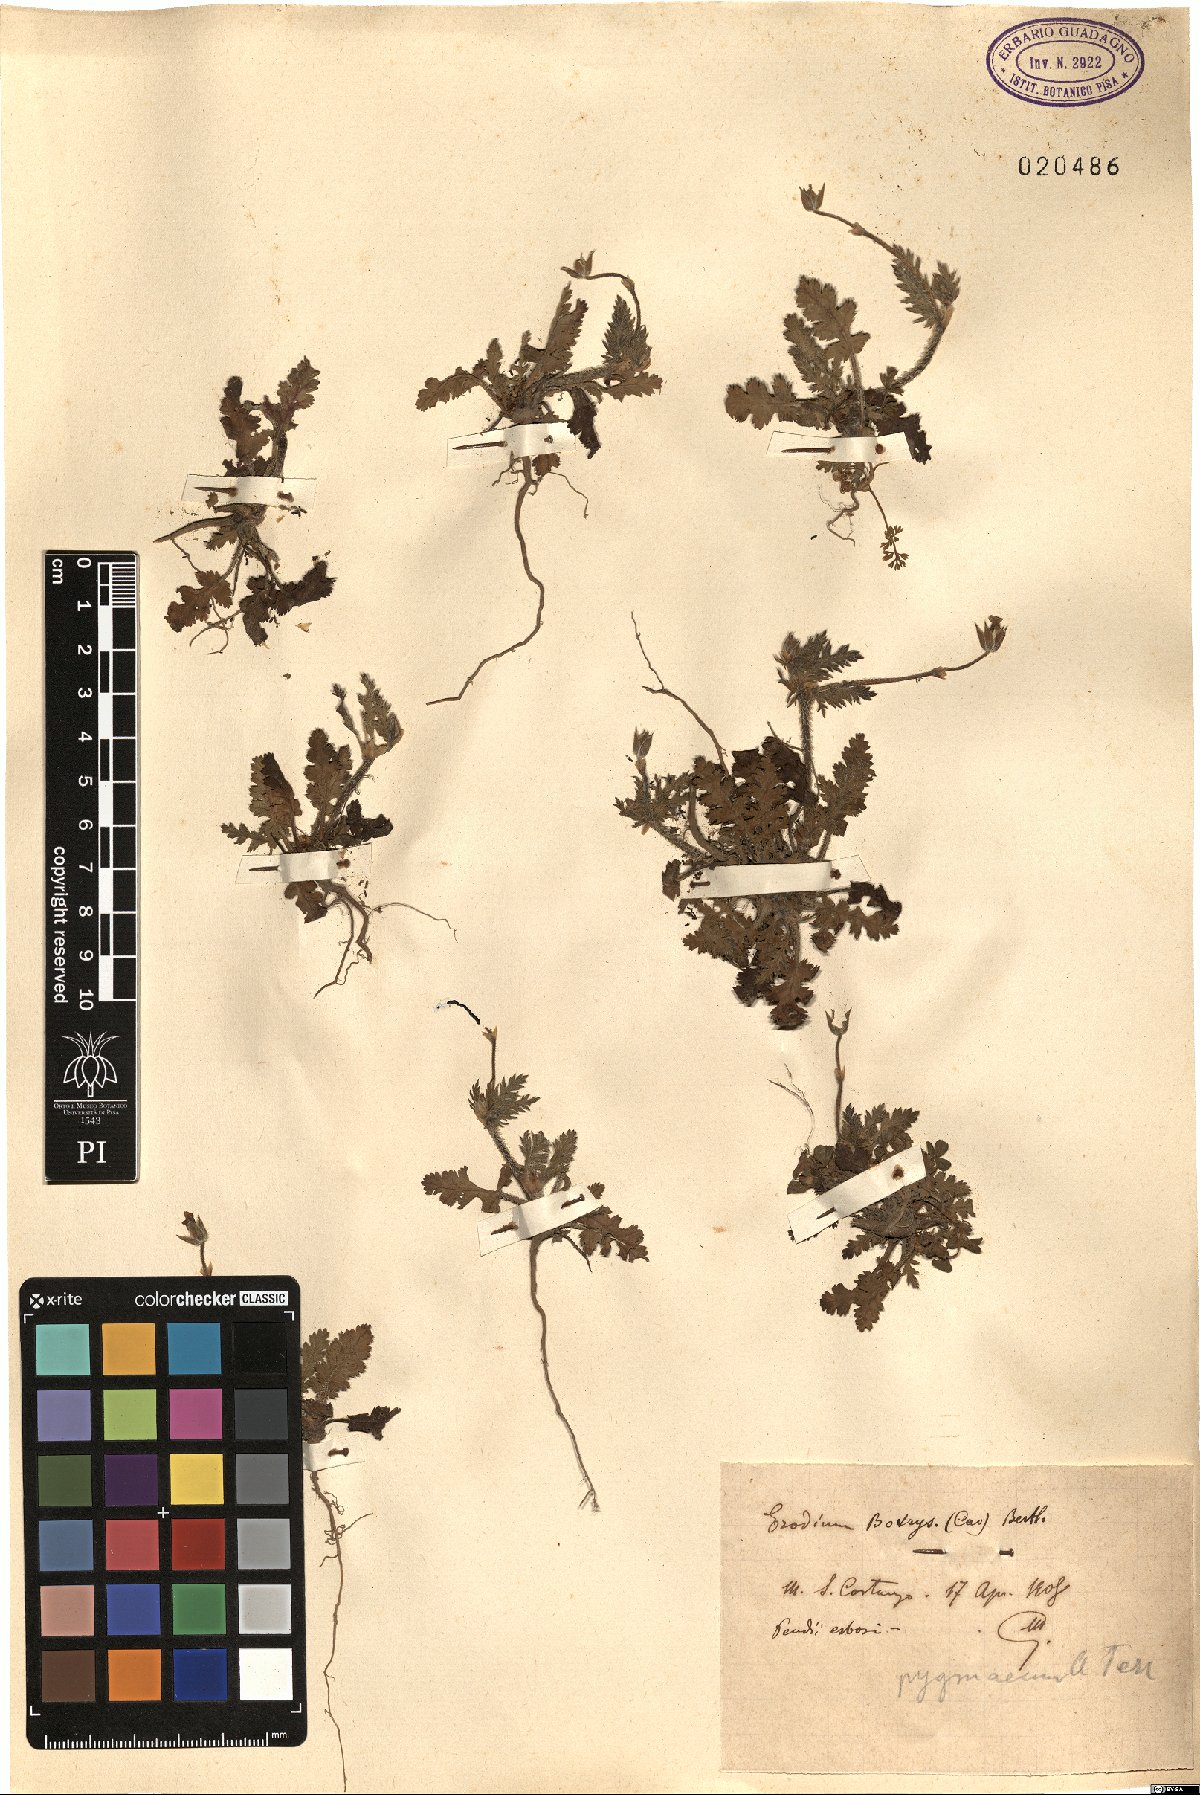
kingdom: Plantae
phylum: Tracheophyta
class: Magnoliopsida
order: Geraniales
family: Geraniaceae
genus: Erodium
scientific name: Erodium botrys
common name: Mediterranean stork's-bill
